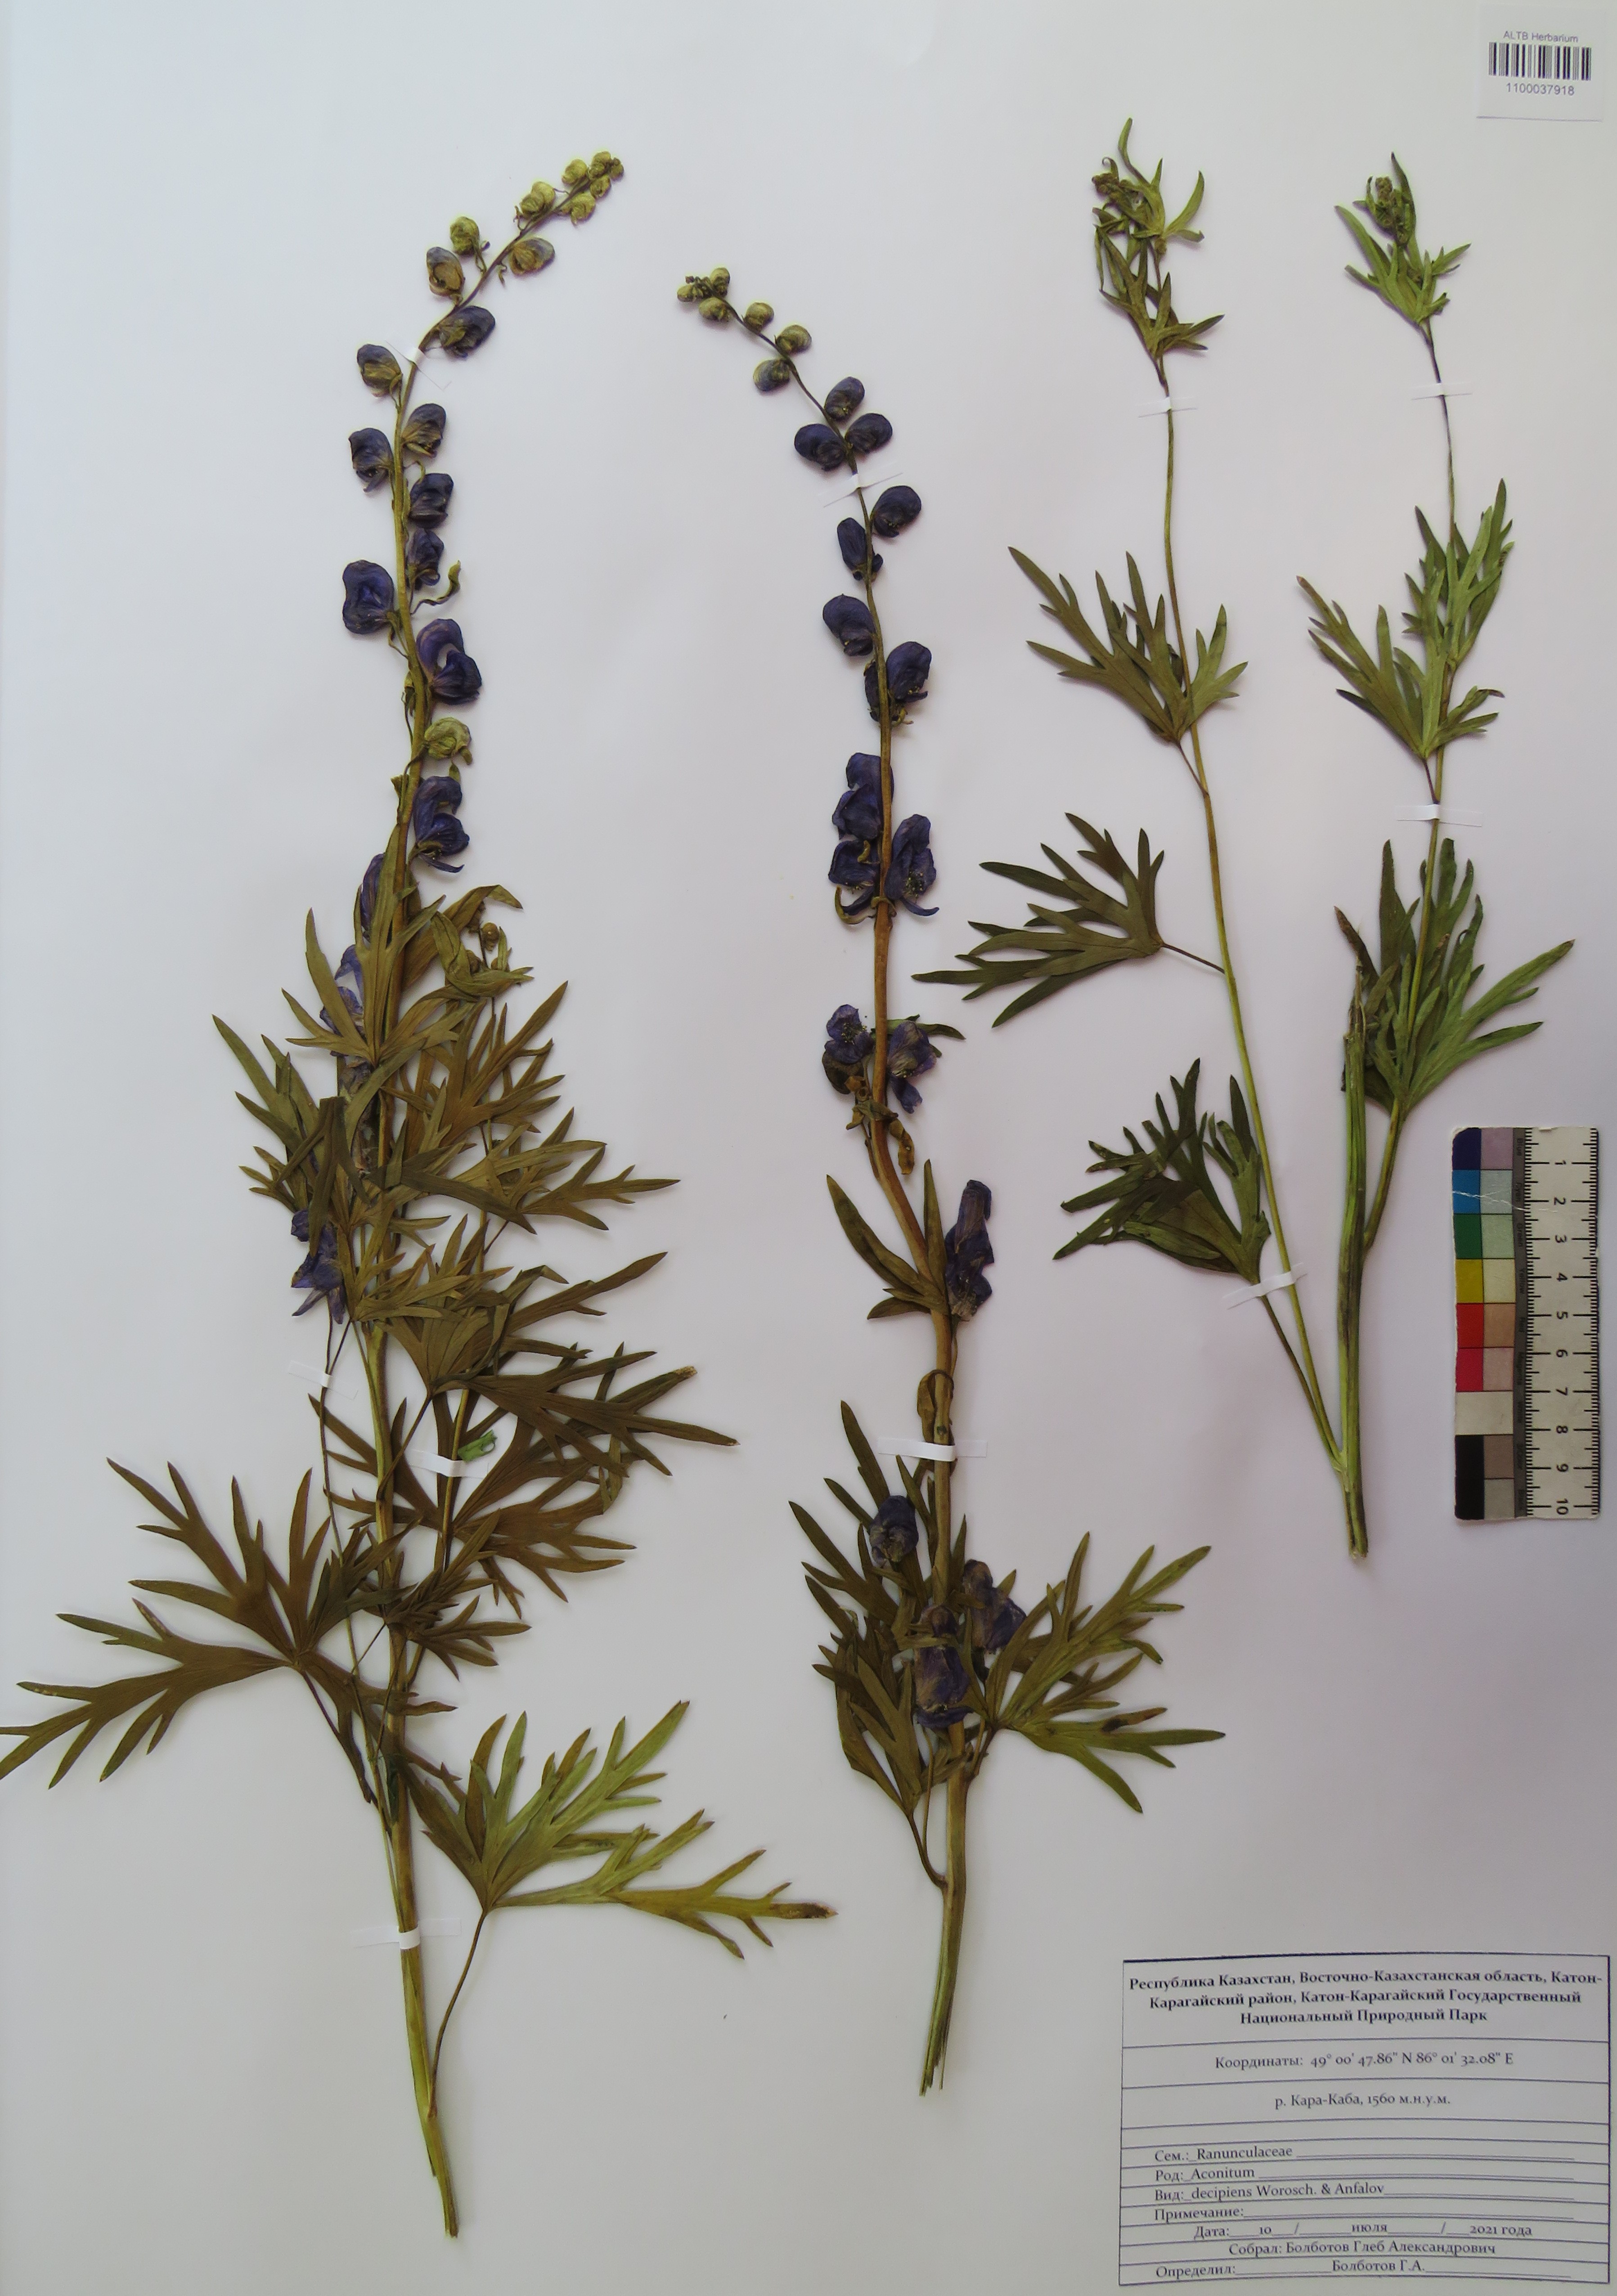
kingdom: Plantae
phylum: Tracheophyta
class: Magnoliopsida
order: Ranunculales
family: Ranunculaceae
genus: Aconitum
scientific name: Aconitum decipiens
